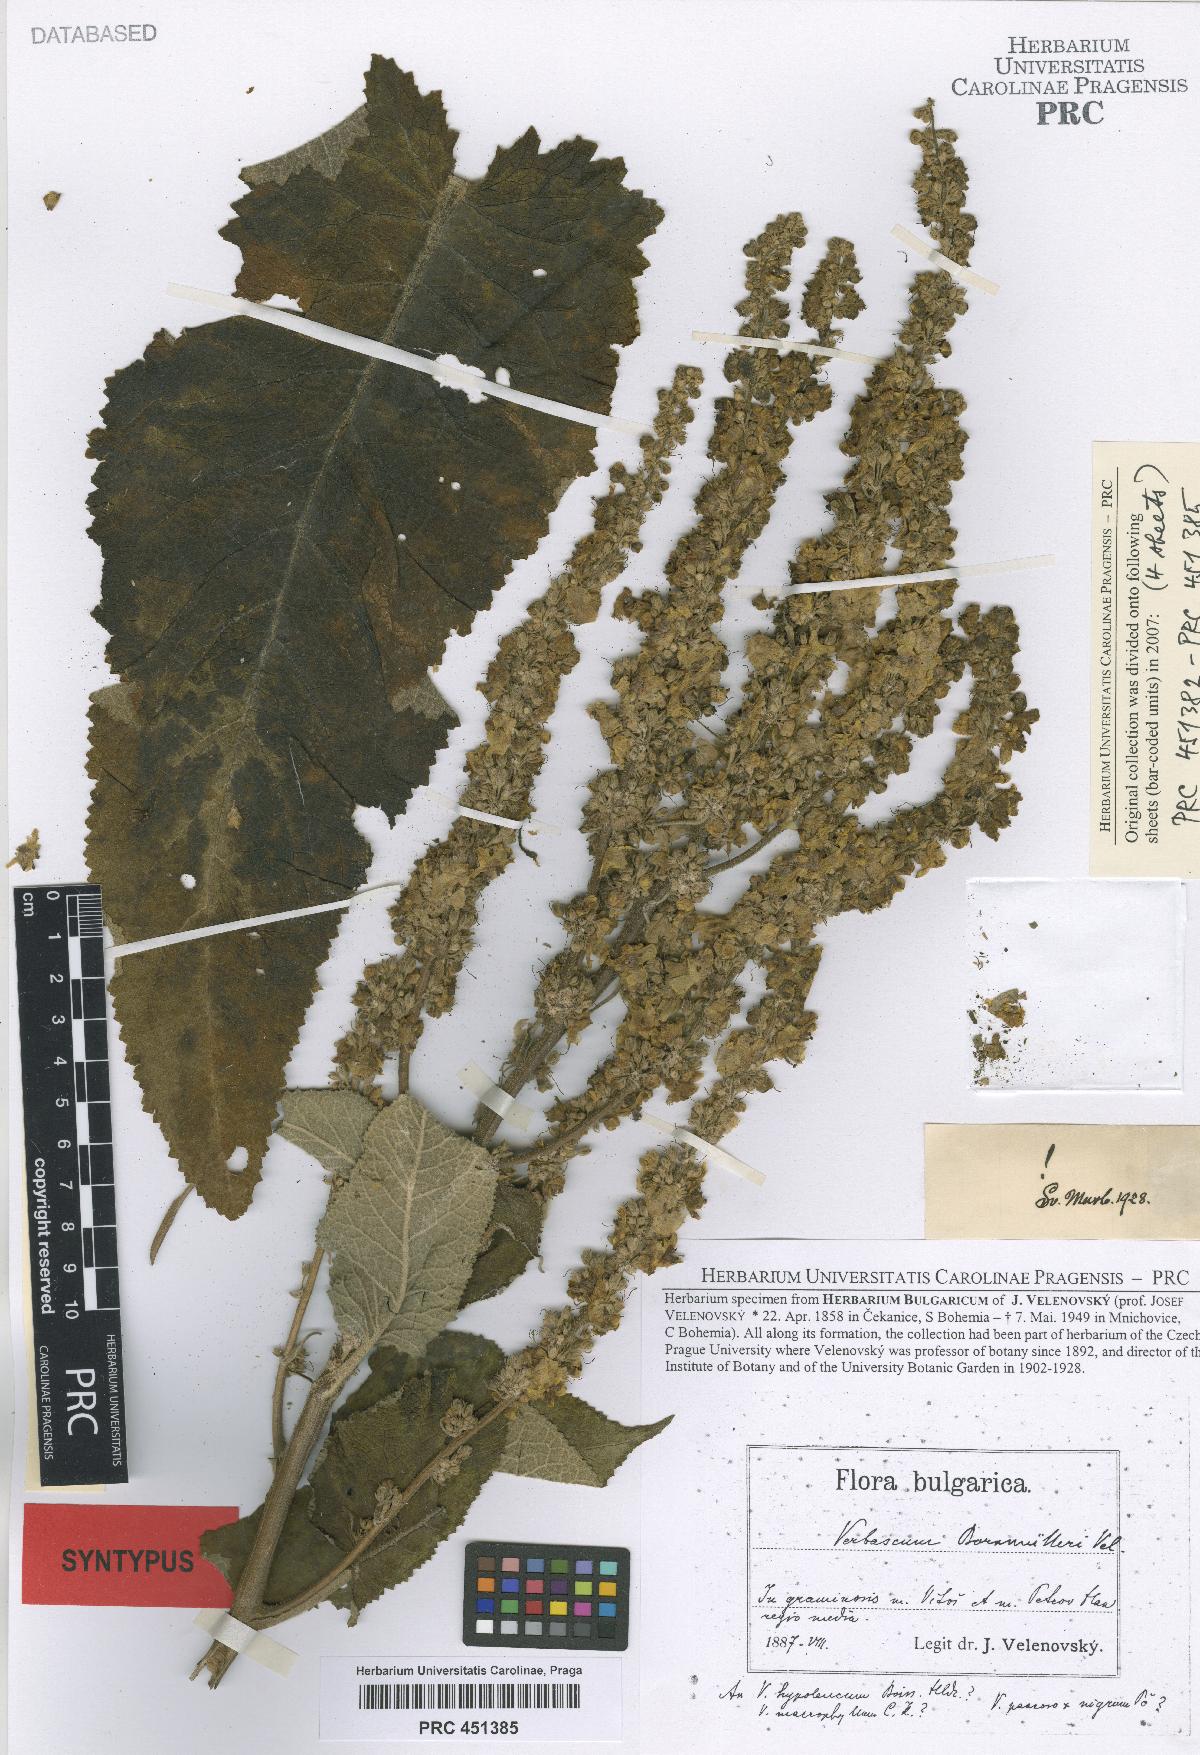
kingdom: Plantae
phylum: Tracheophyta
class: Magnoliopsida
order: Lamiales
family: Scrophulariaceae
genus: Verbascum
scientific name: Verbascum nigrum
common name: Dark mullein
